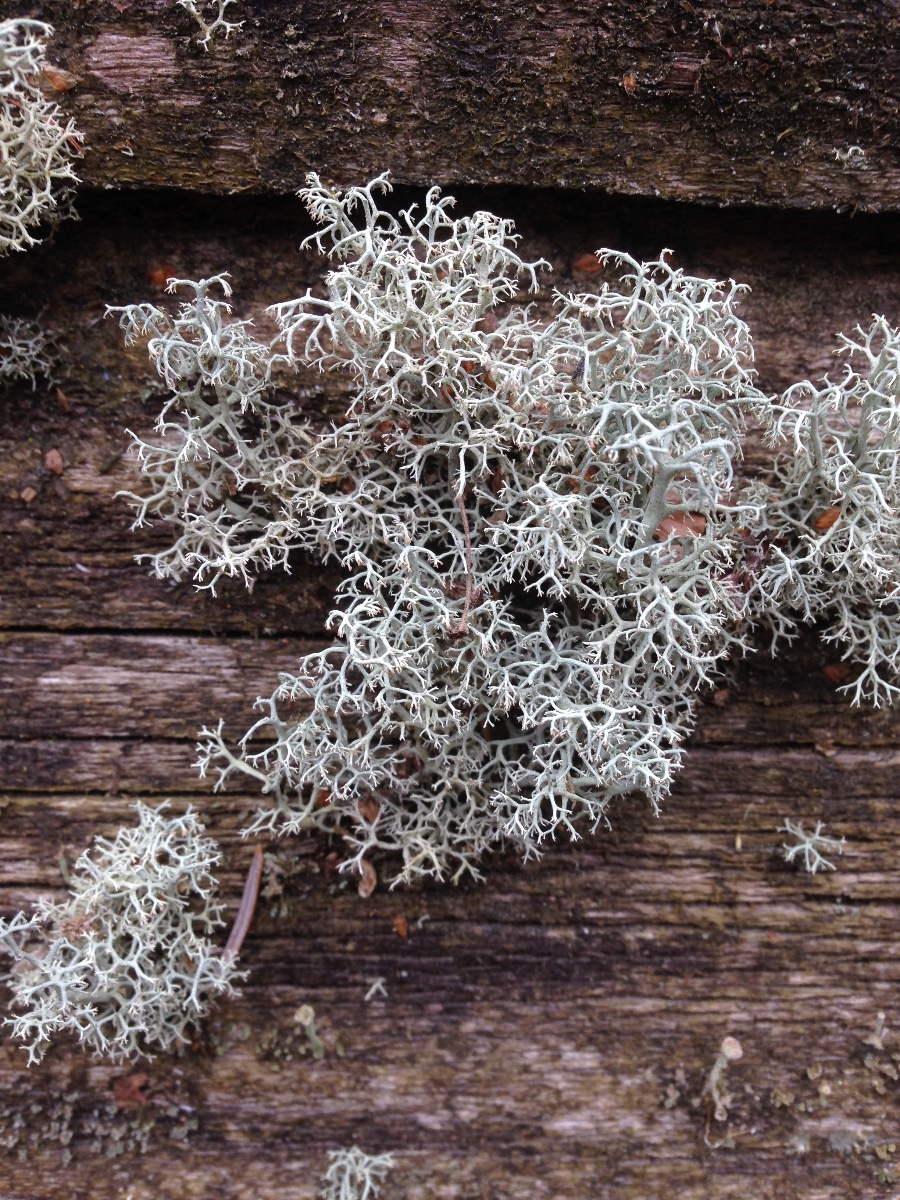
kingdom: Fungi
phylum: Ascomycota
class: Lecanoromycetes
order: Lecanorales
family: Cladoniaceae
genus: Cladonia
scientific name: Cladonia portentosa
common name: hede-rensdyrlav
